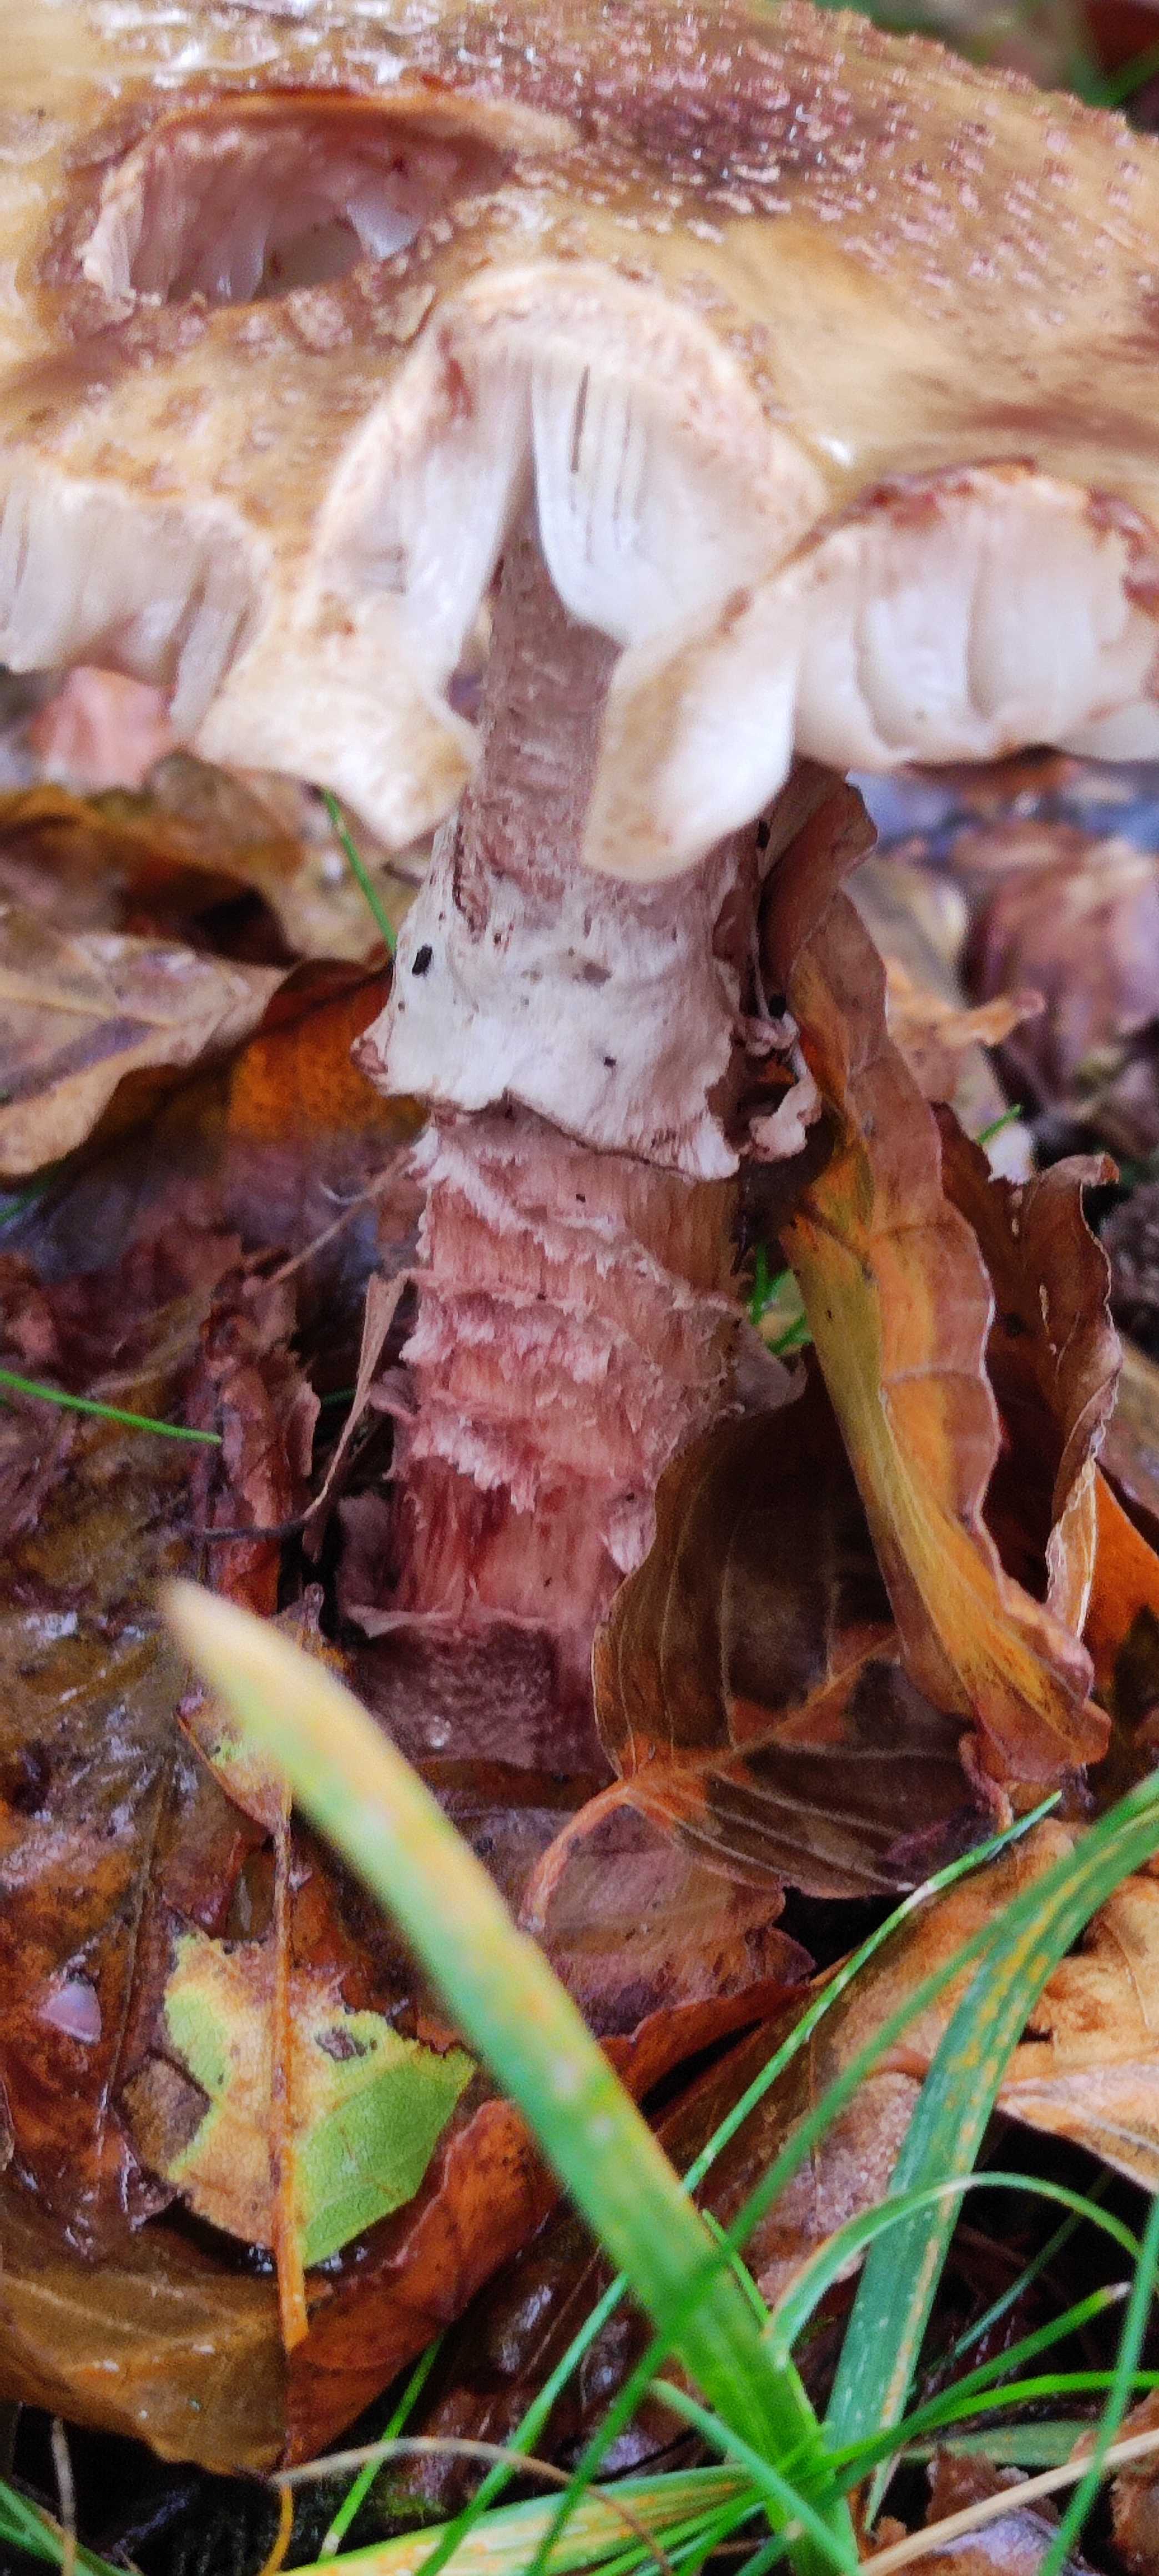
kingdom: Fungi
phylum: Basidiomycota
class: Agaricomycetes
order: Agaricales
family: Amanitaceae
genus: Amanita
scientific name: Amanita rubescens
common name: rødmende fluesvamp
